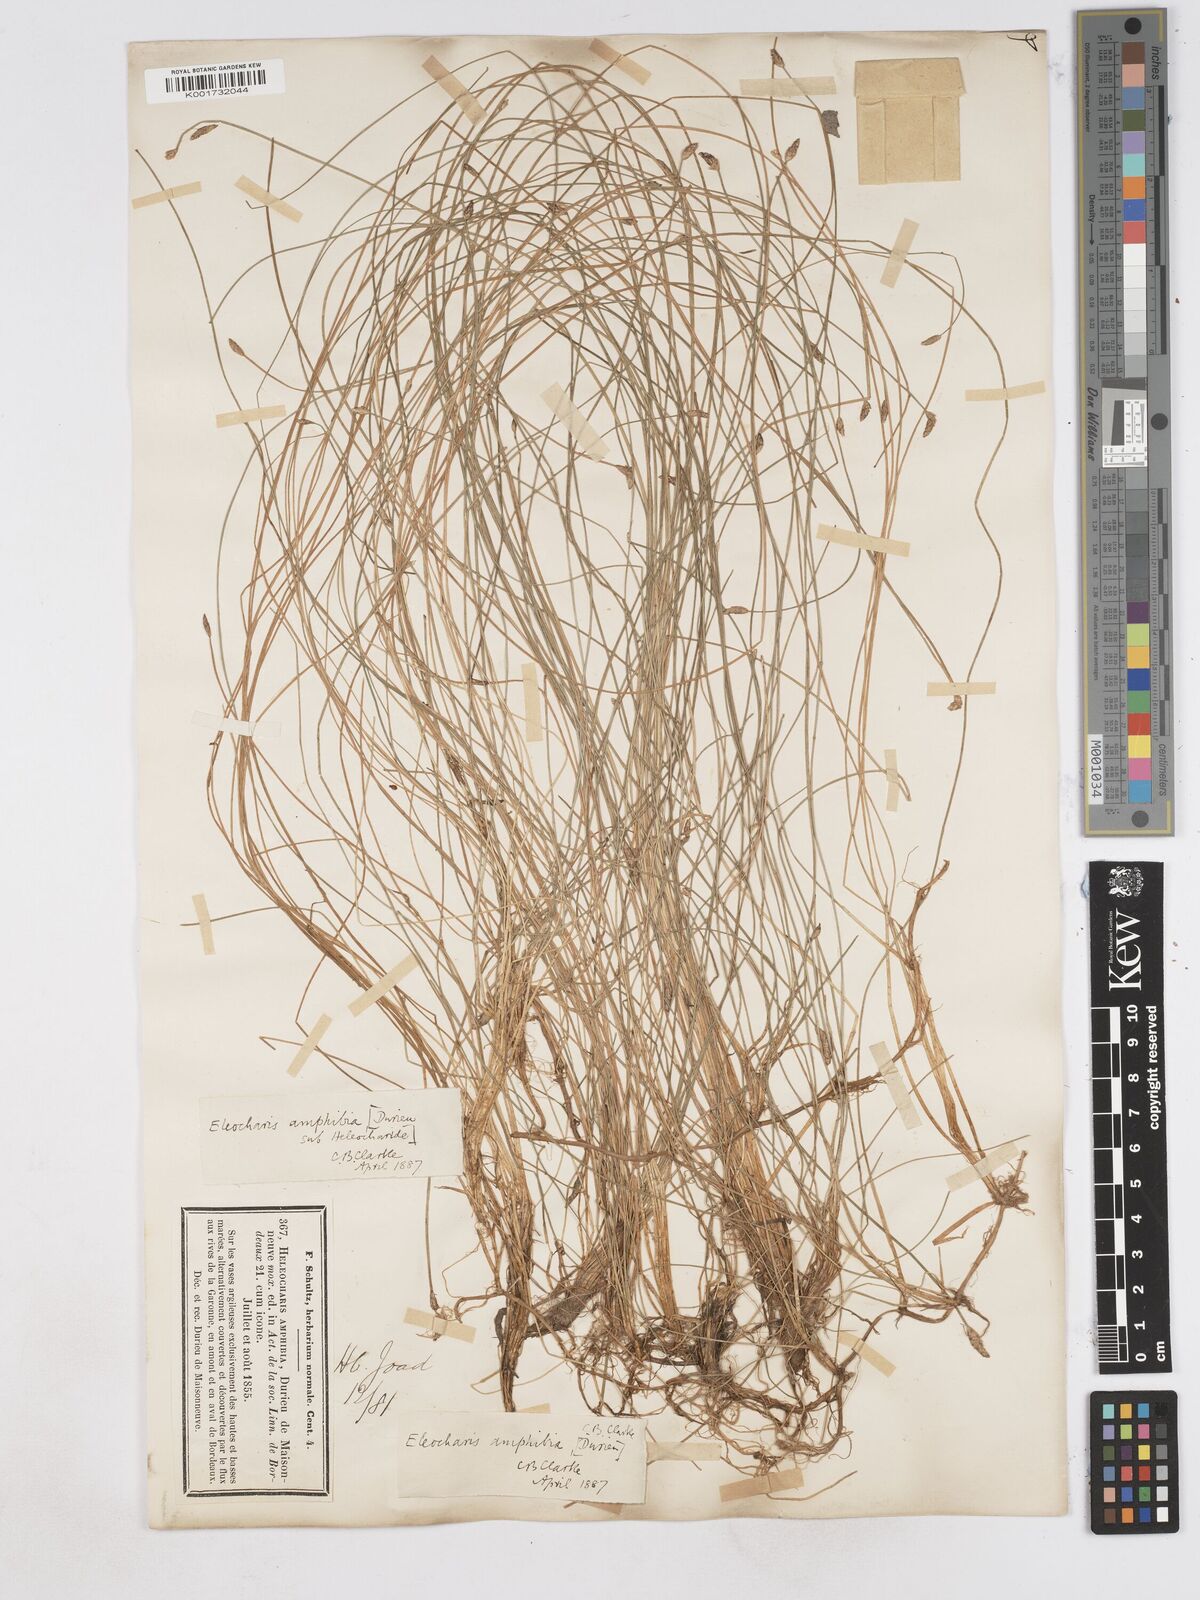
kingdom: Plantae
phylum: Tracheophyta
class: Liliopsida
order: Poales
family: Cyperaceae
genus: Eleocharis
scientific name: Eleocharis bonariensis
